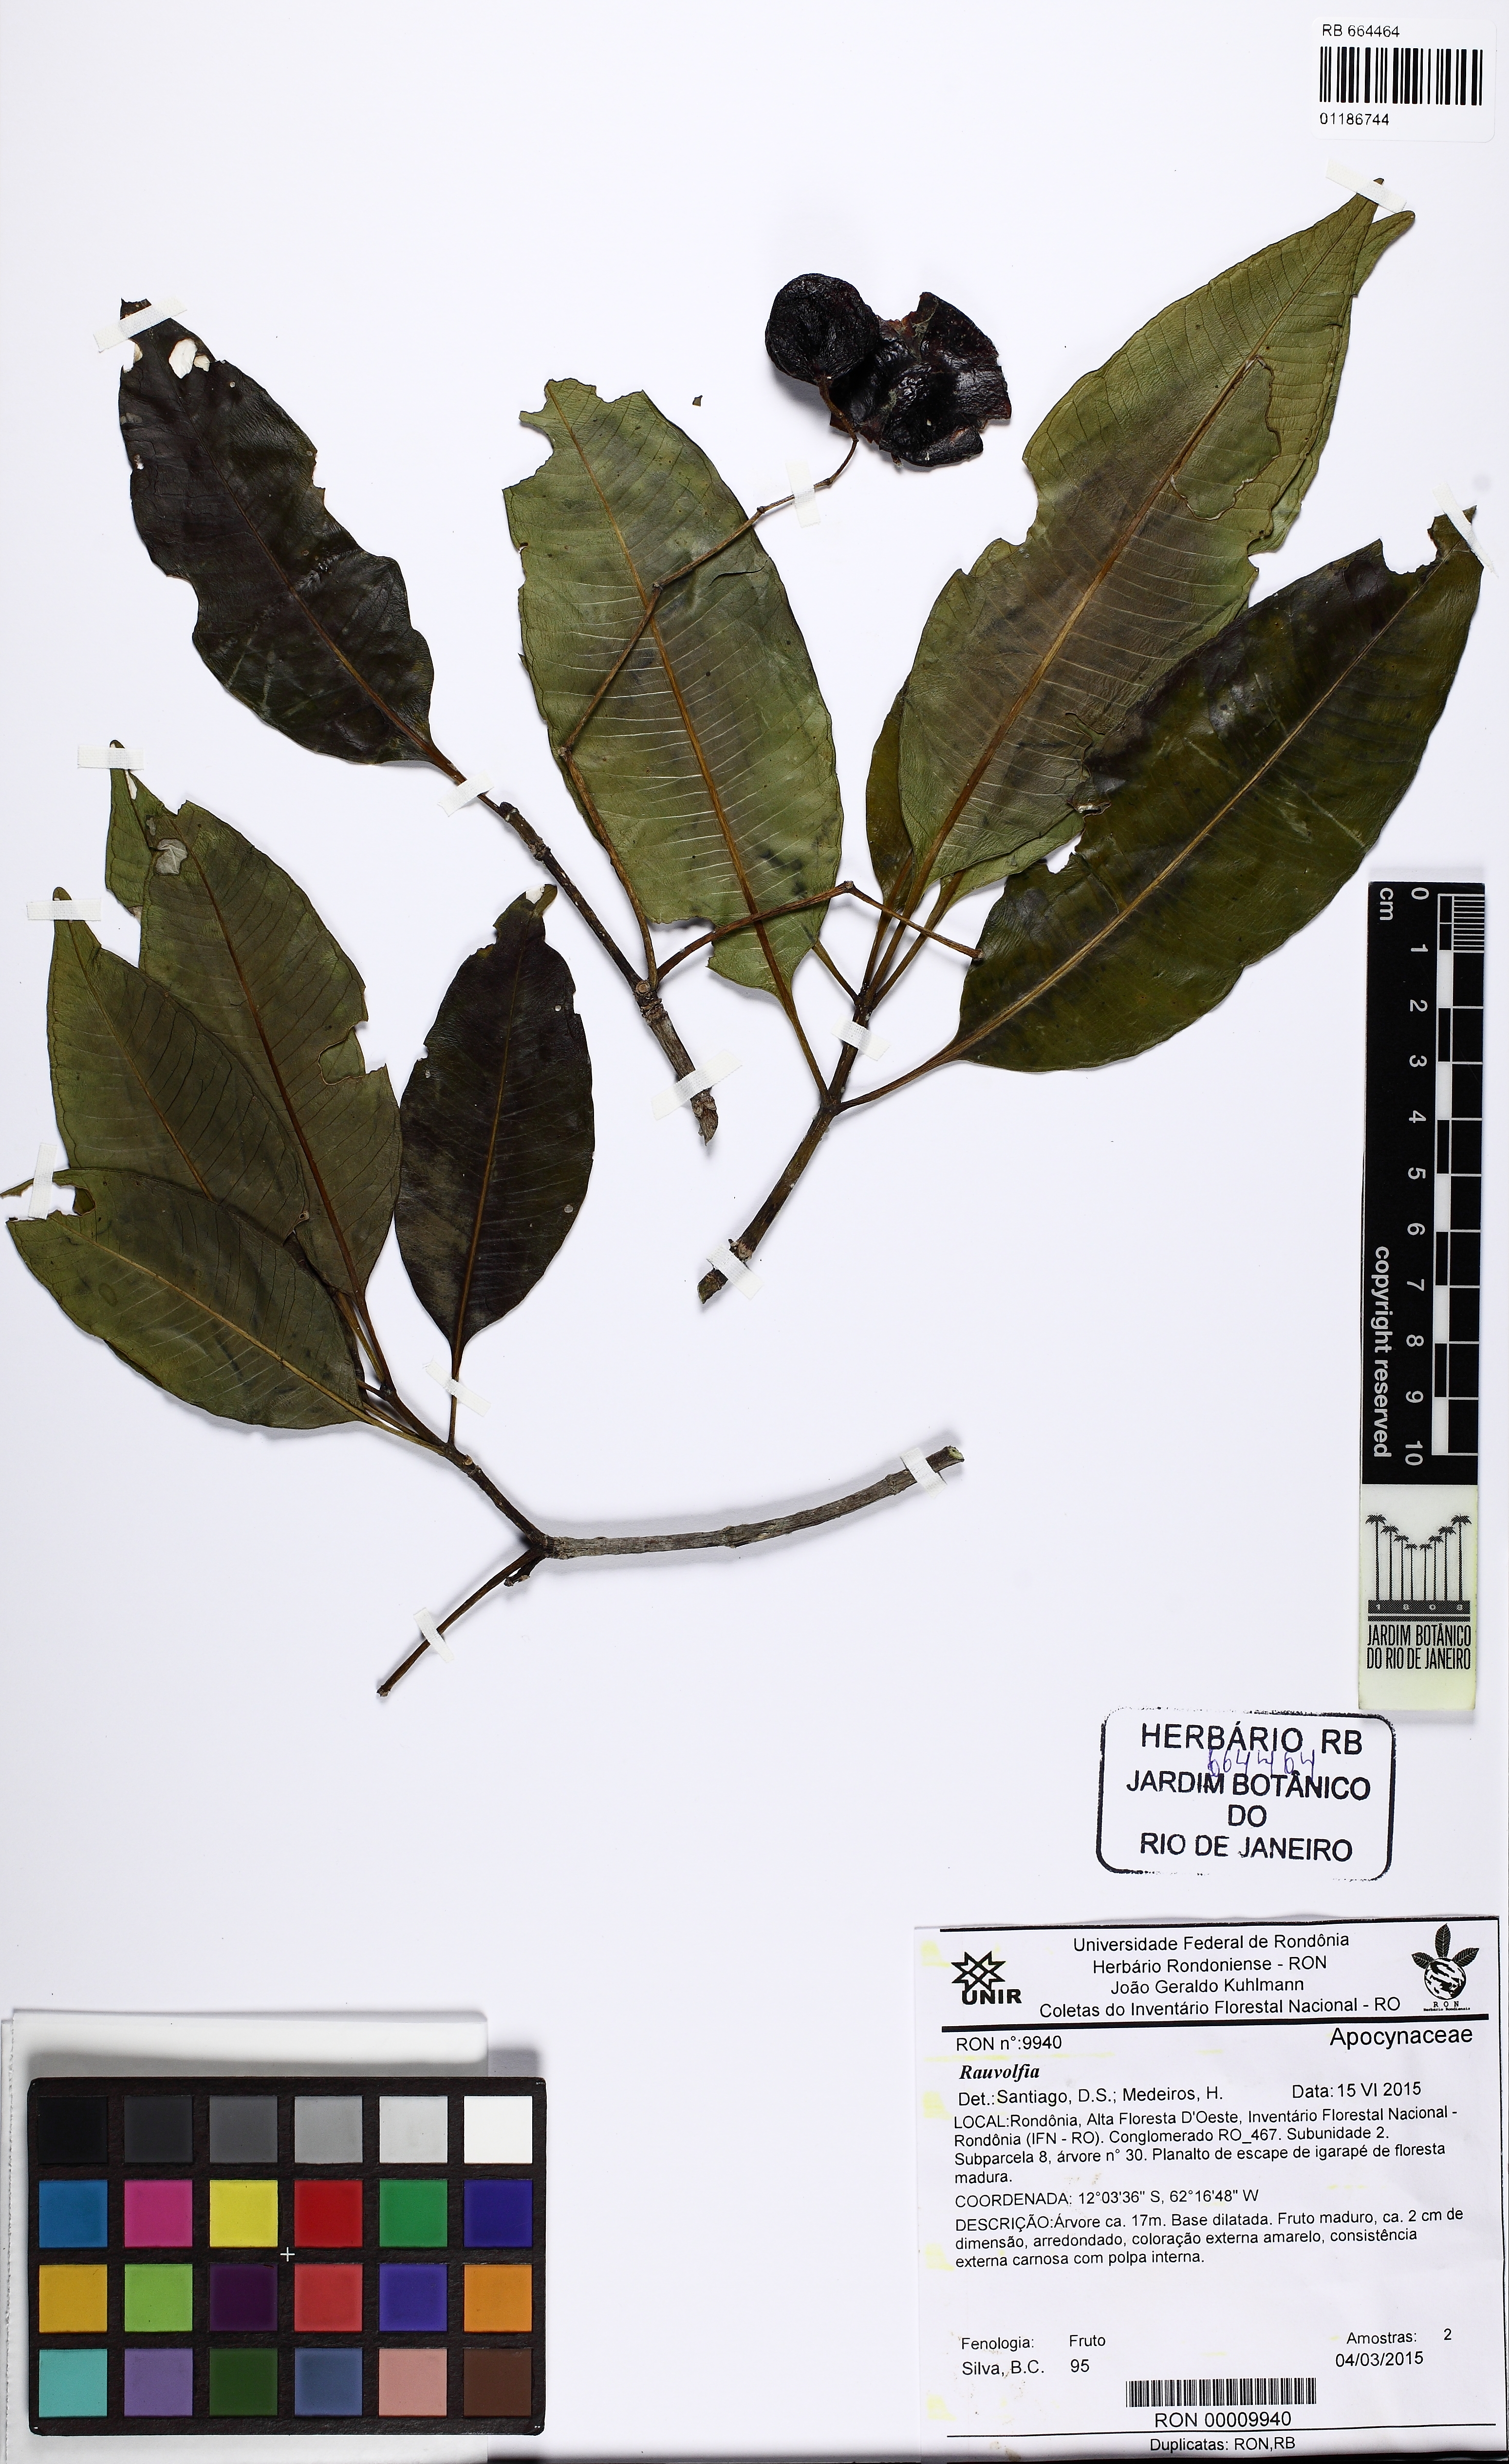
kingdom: Plantae
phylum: Tracheophyta
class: Magnoliopsida
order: Gentianales
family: Apocynaceae
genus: Rauvolfia
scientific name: Rauvolfia
